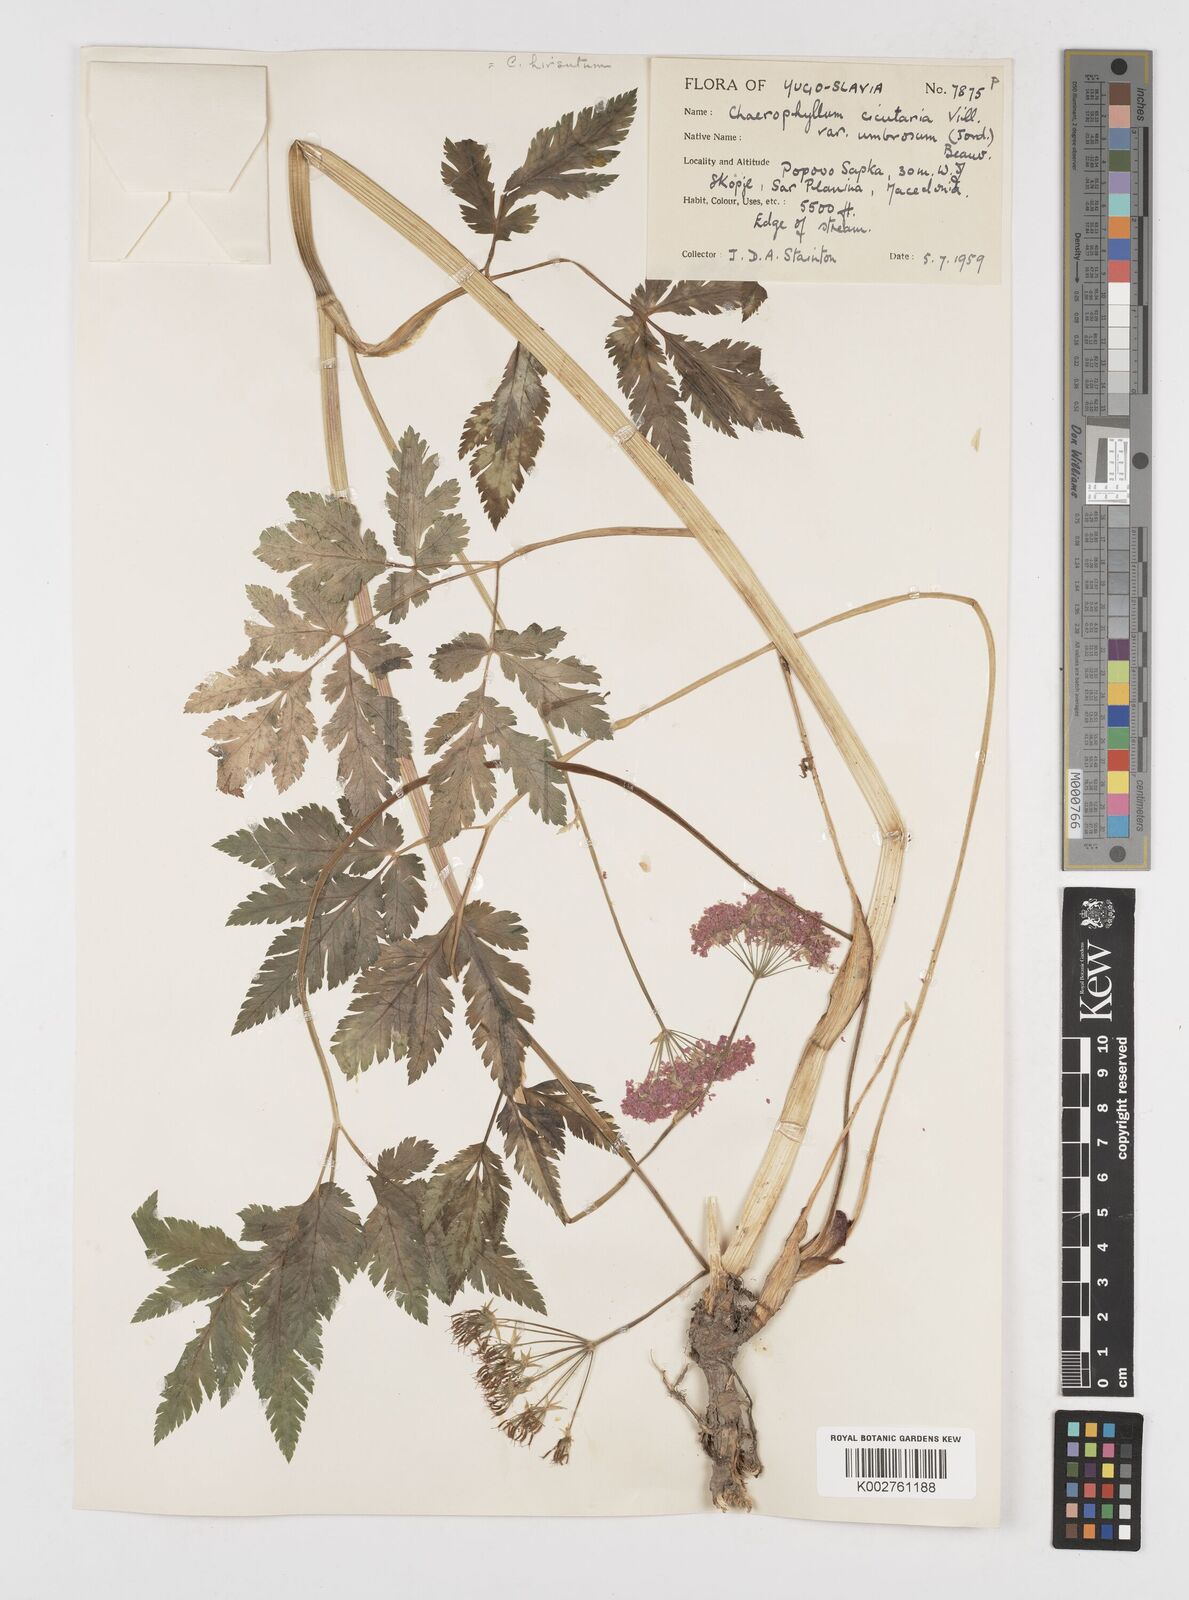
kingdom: Plantae
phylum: Tracheophyta
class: Magnoliopsida
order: Apiales
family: Apiaceae
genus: Chaerophyllum
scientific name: Chaerophyllum hirsutum
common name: Hairy chervil
